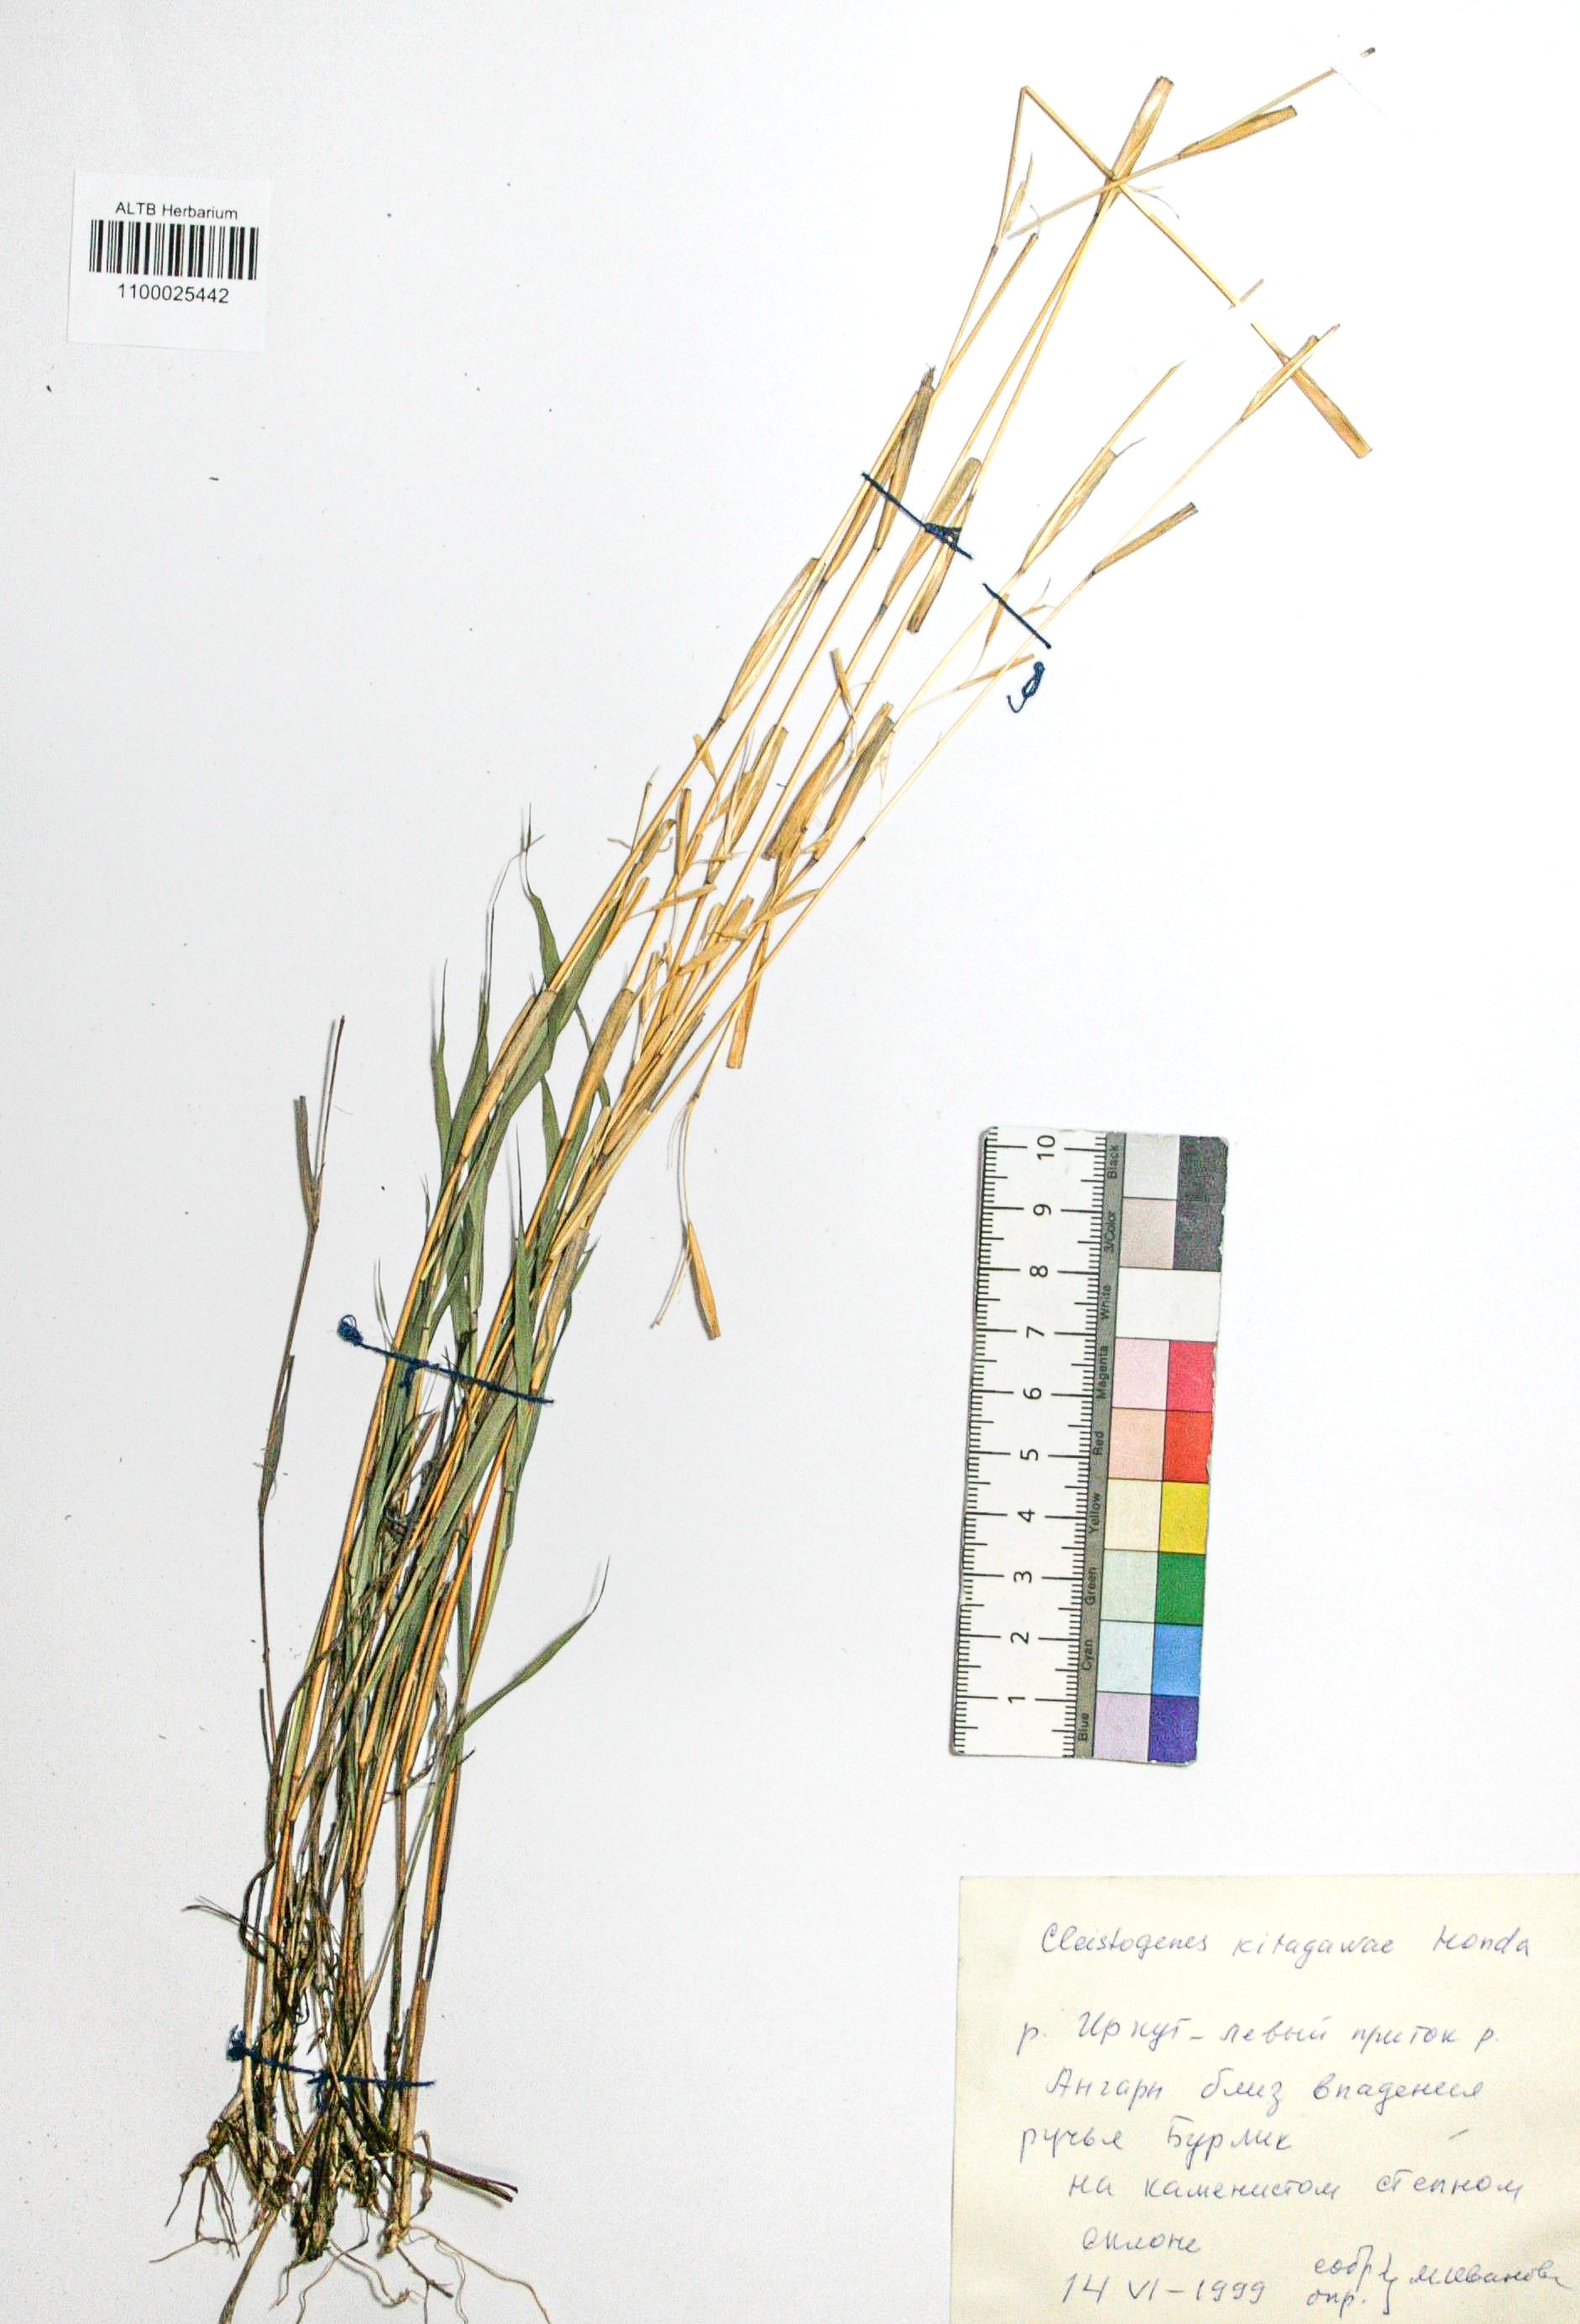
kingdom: Plantae
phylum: Tracheophyta
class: Liliopsida
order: Poales
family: Poaceae
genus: Cleistogenes
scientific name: Cleistogenes kitagawae
